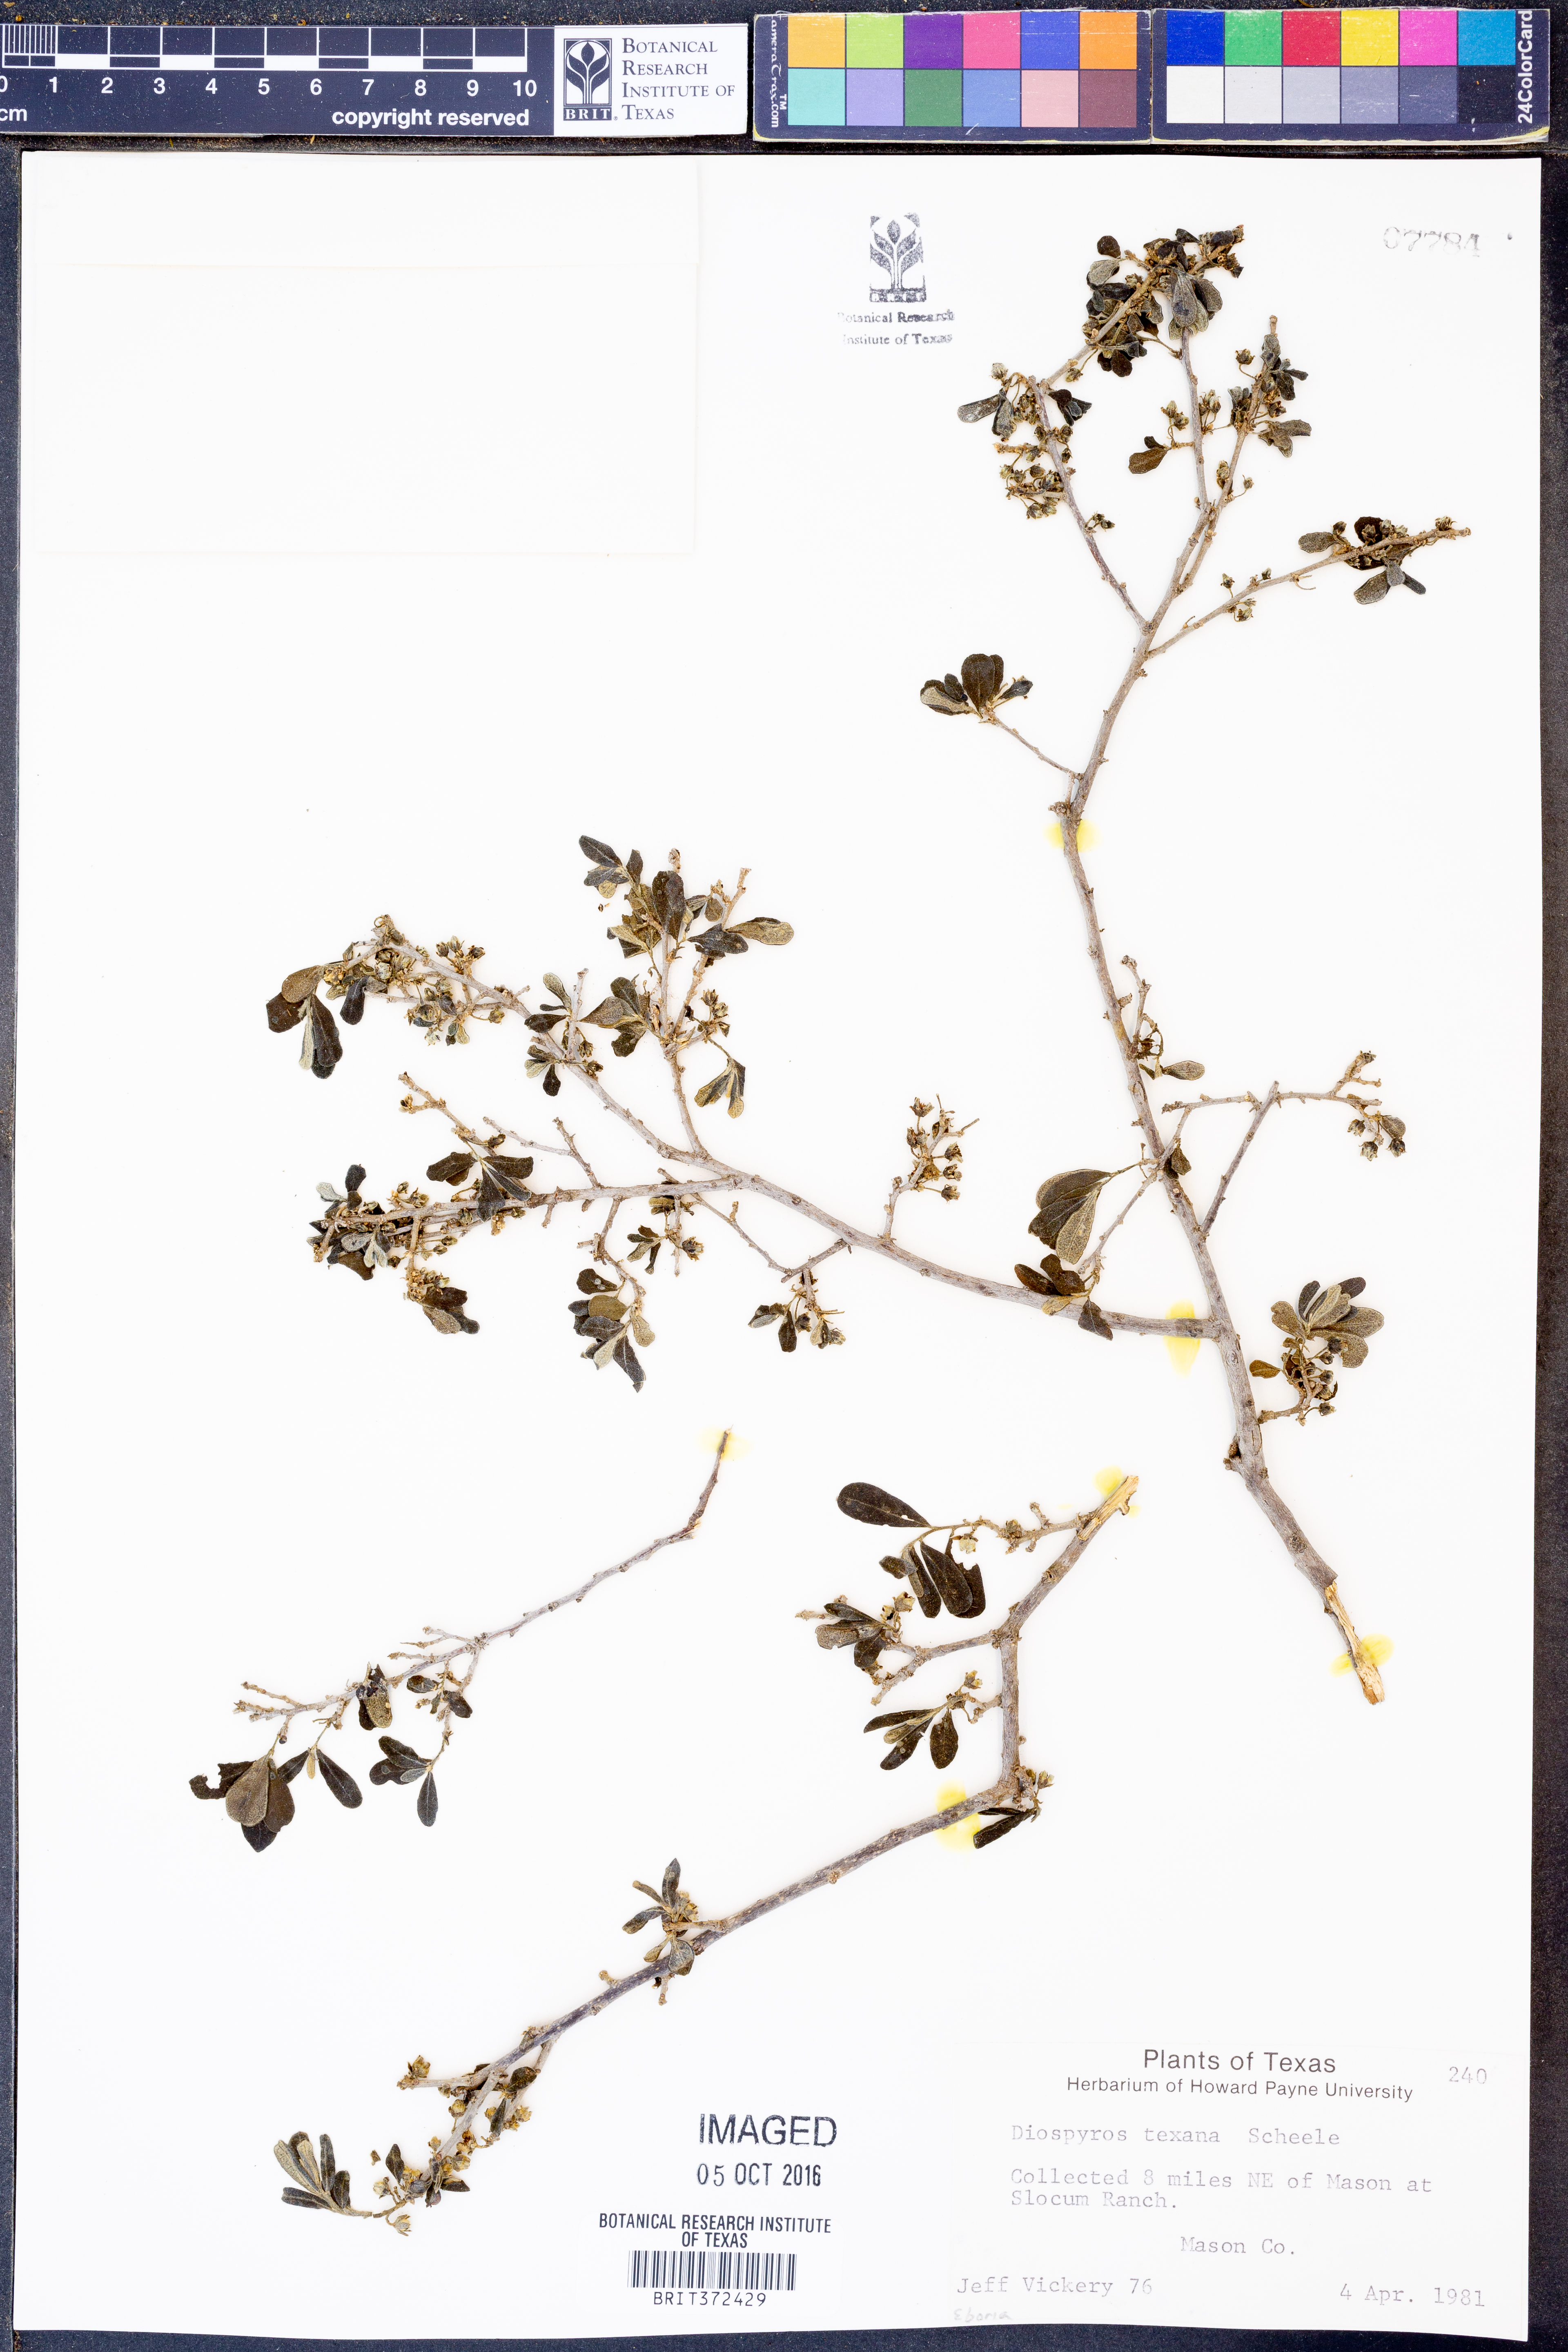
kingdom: Plantae
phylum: Tracheophyta
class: Magnoliopsida
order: Ericales
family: Ebenaceae
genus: Diospyros
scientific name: Diospyros texana
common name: Texas persimmon
